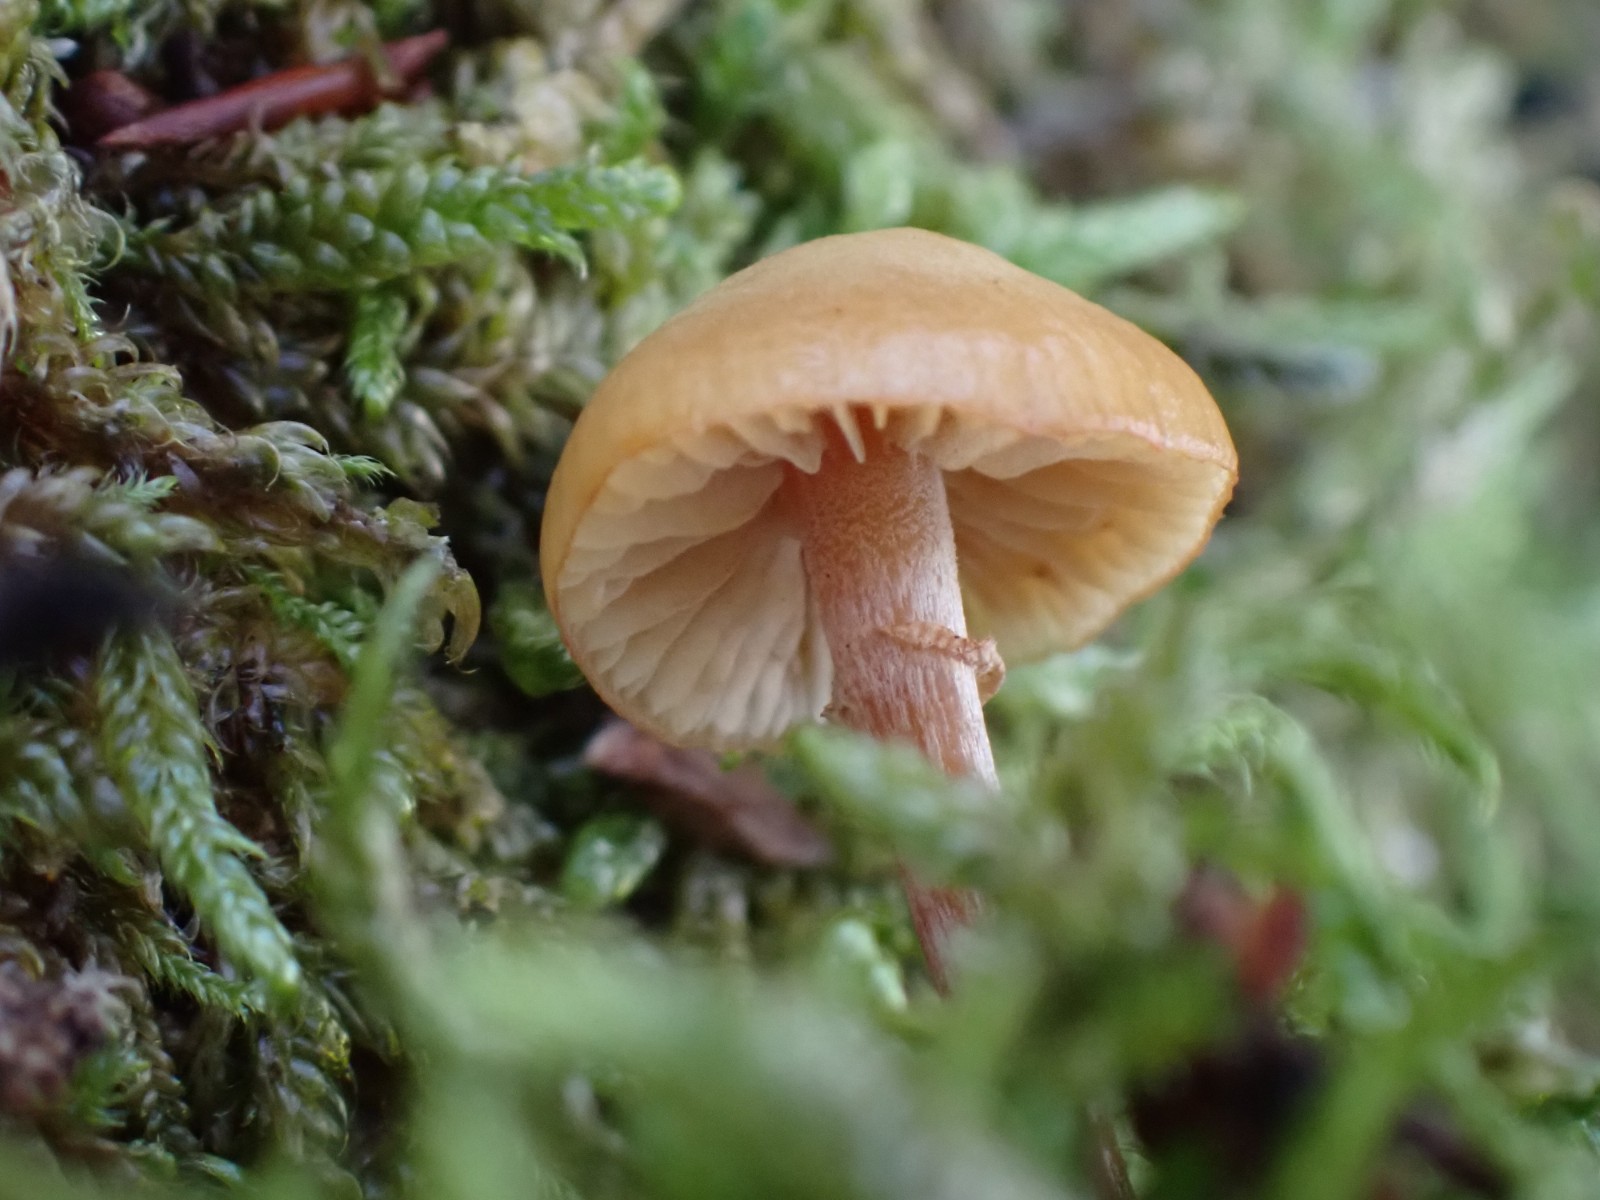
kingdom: Fungi
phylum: Basidiomycota
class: Agaricomycetes
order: Agaricales
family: Cortinariaceae
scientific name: Cortinariaceae
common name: slørhatfamilien
